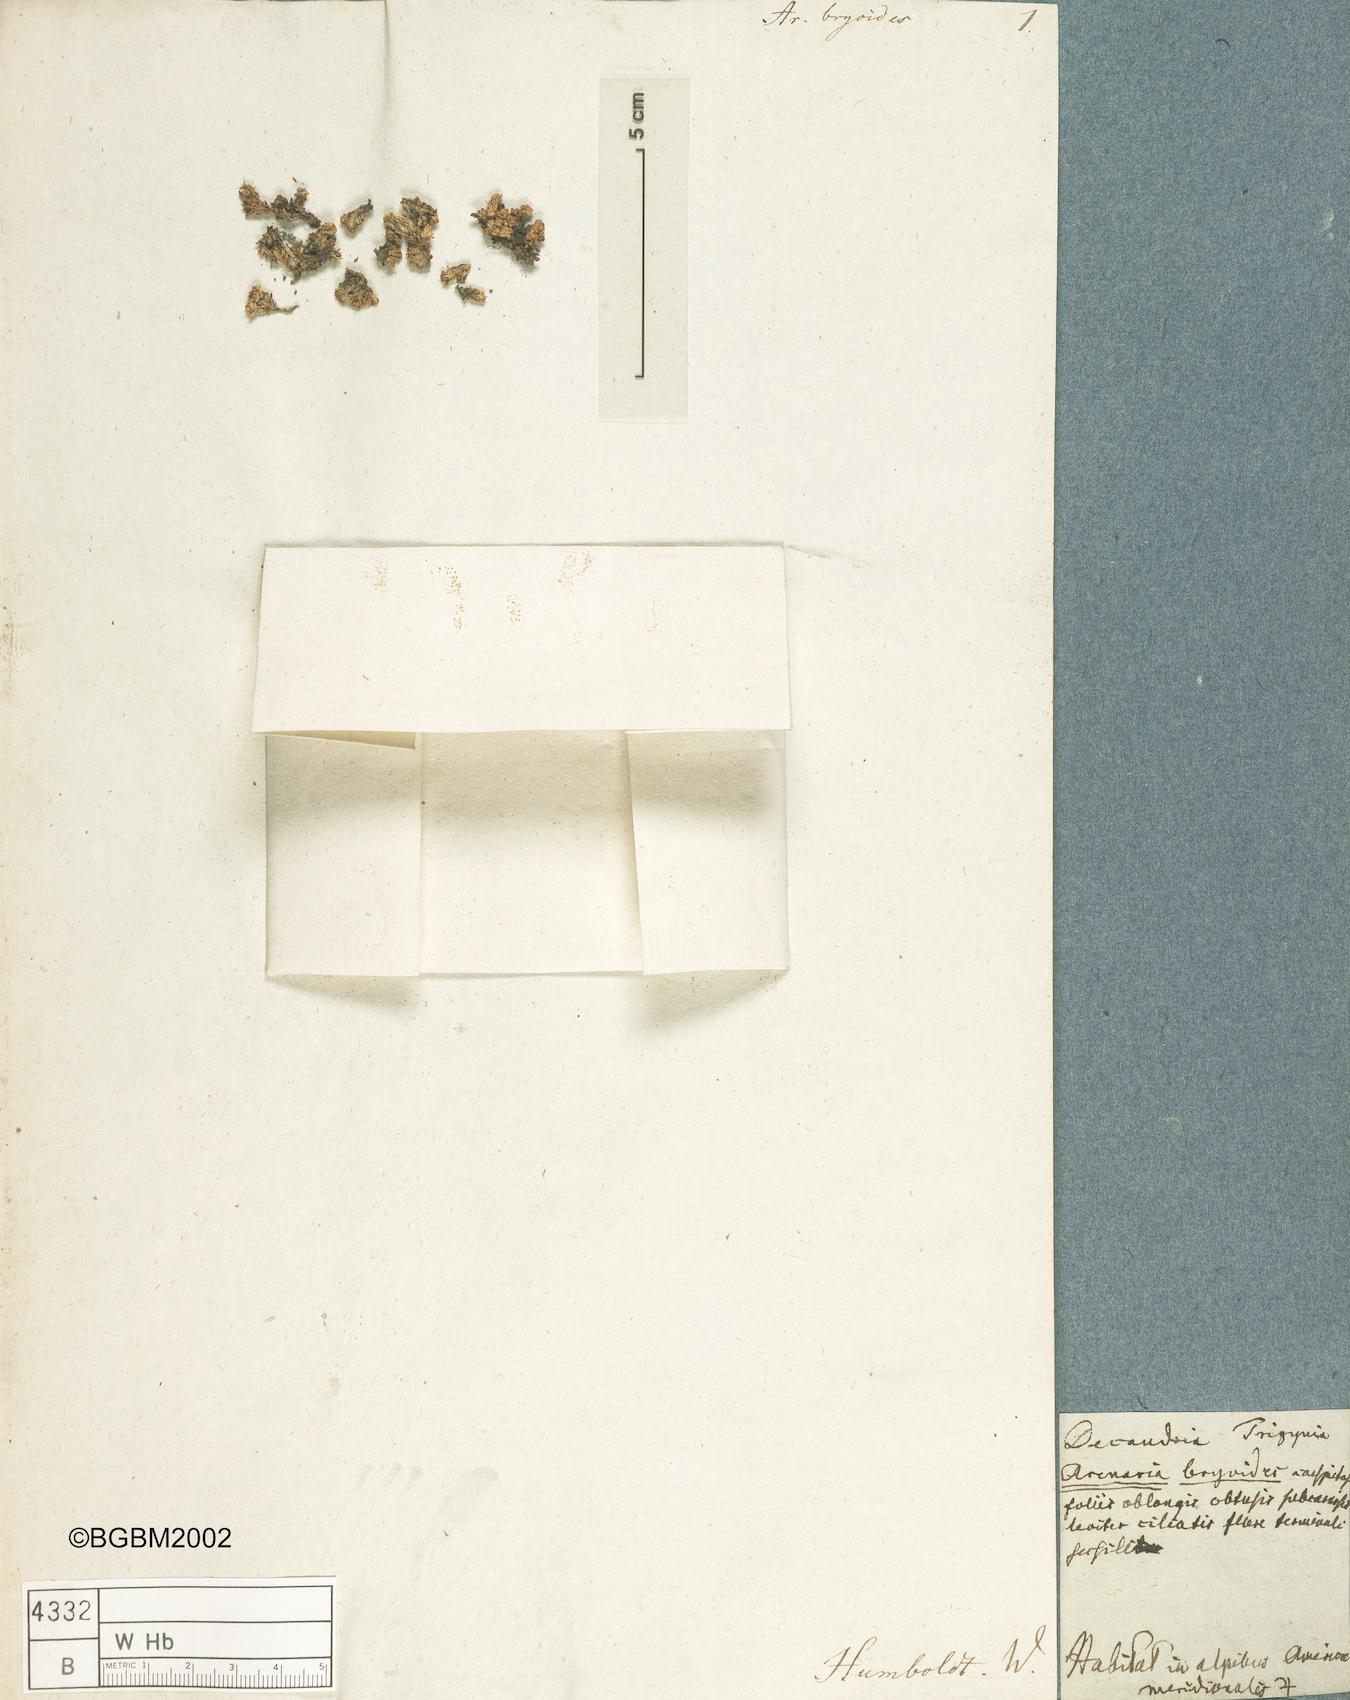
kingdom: Plantae
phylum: Tracheophyta
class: Magnoliopsida
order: Caryophyllales
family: Caryophyllaceae
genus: Arenaria
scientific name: Arenaria bryoides
